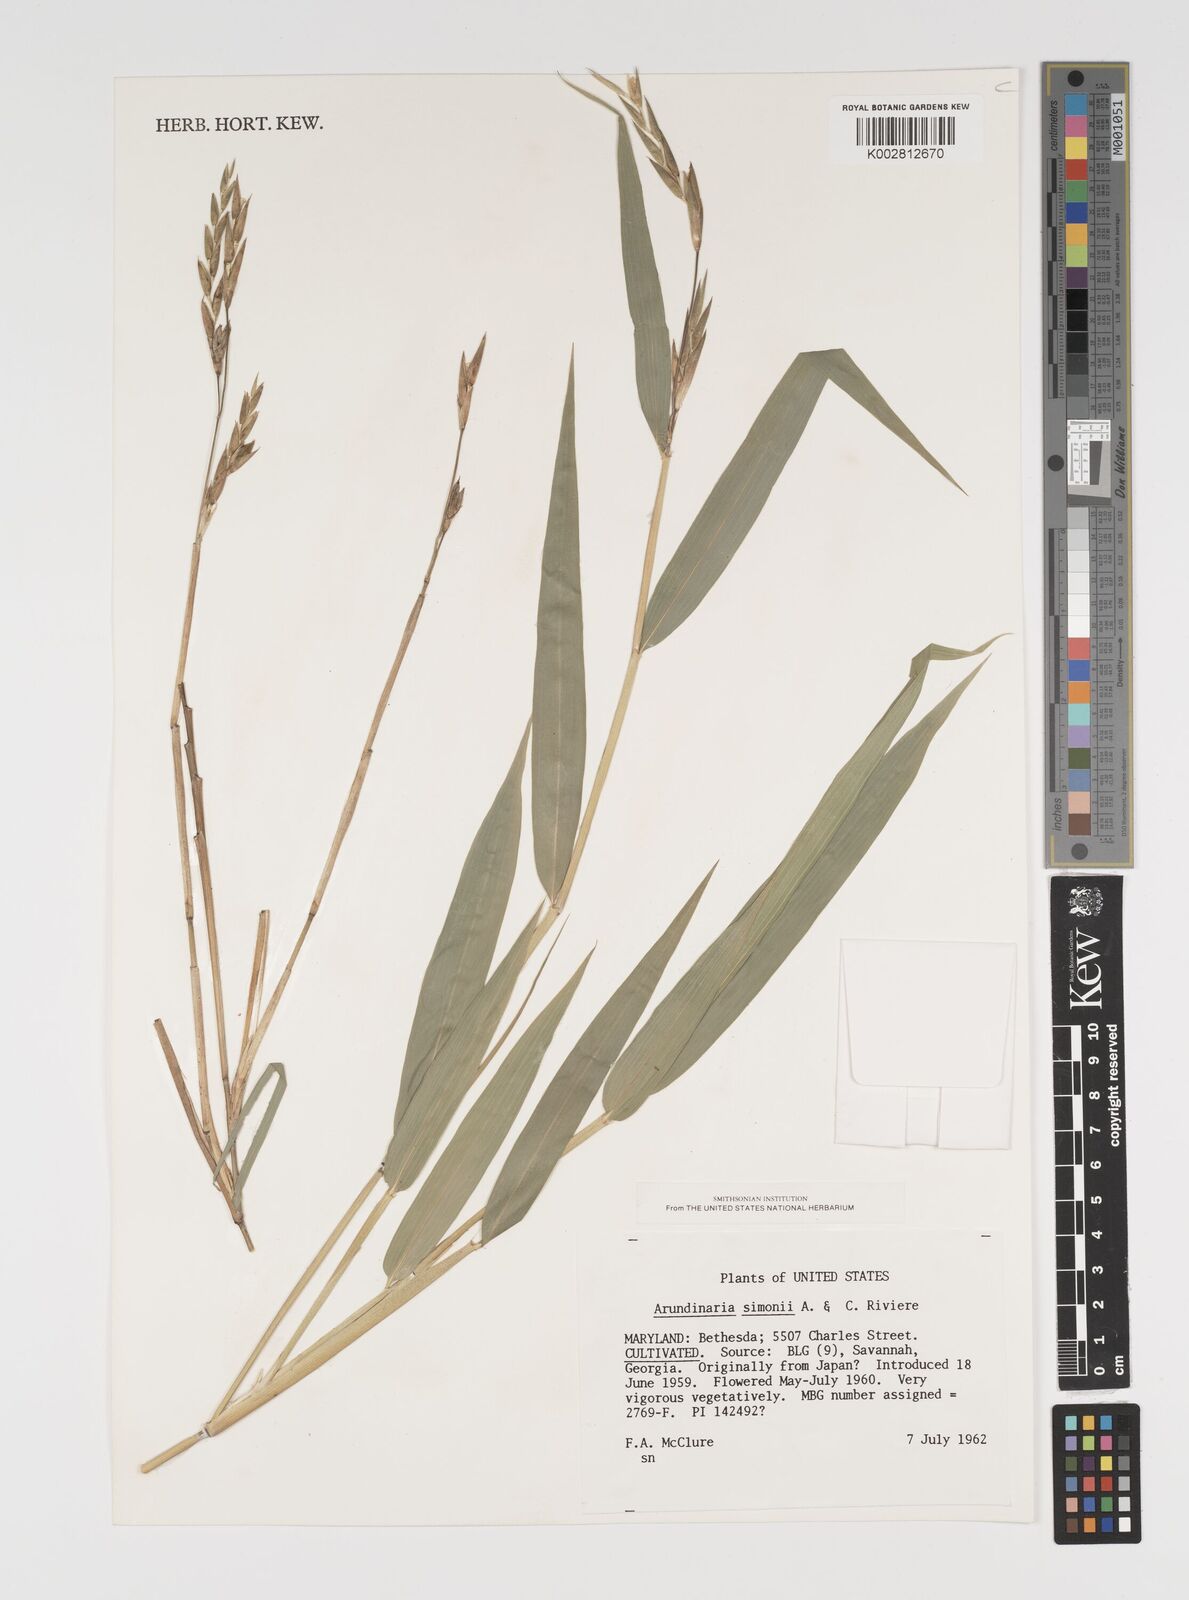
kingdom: Plantae
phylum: Tracheophyta
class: Liliopsida
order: Poales
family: Poaceae
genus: Pleioblastus
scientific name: Pleioblastus simonii
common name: Simon bamboo
